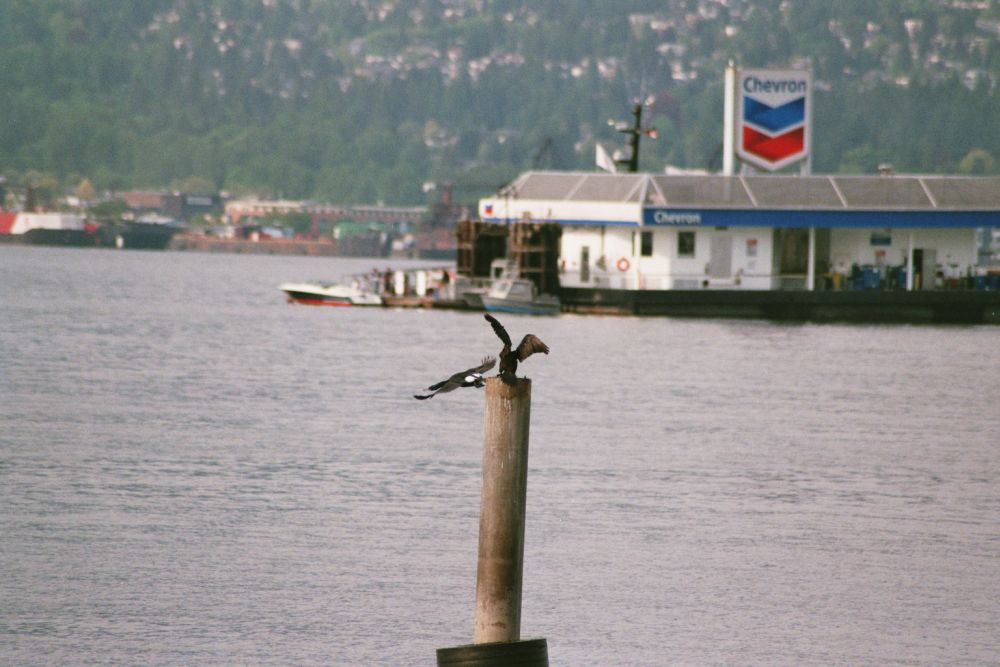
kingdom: Animalia
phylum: Chordata
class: Aves
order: Suliformes
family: Phalacrocoracidae
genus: Phalacrocorax
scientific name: Phalacrocorax pelagicus
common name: Pelagic cormorant
